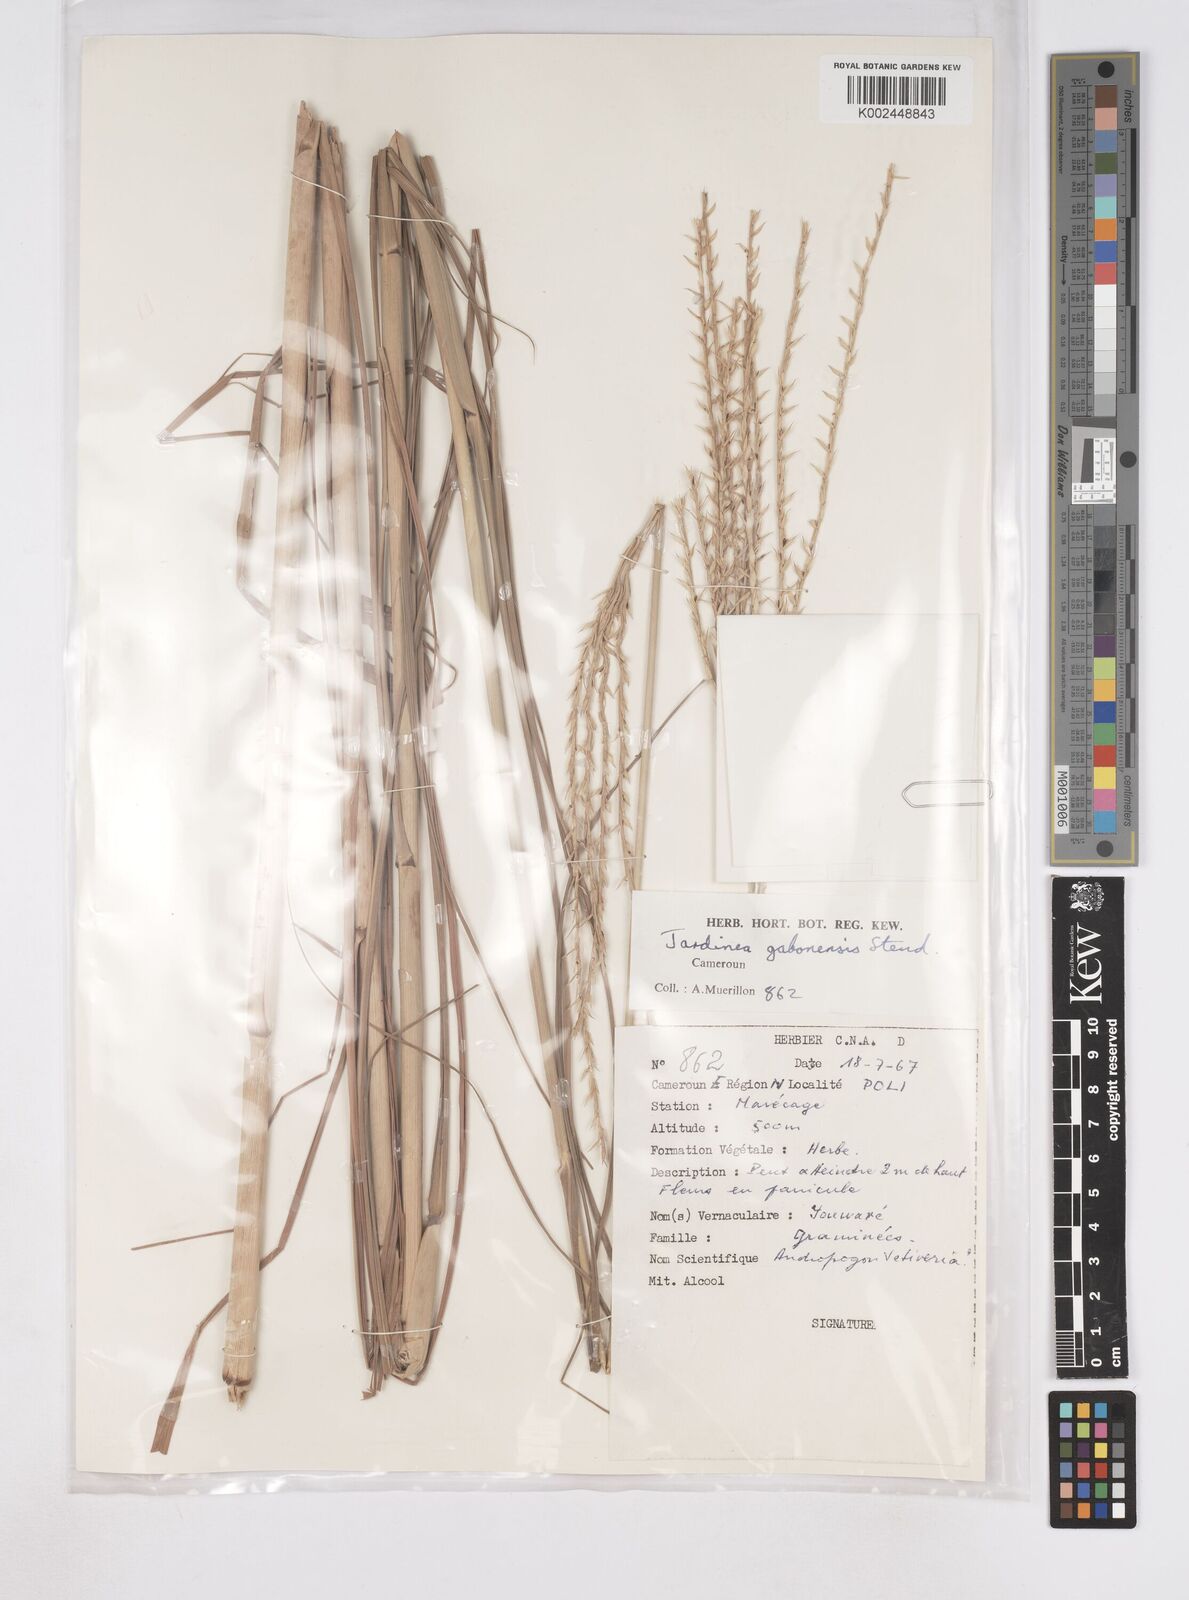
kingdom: Plantae
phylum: Tracheophyta
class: Liliopsida
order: Poales
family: Poaceae
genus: Phacelurus
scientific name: Phacelurus gabonensis
